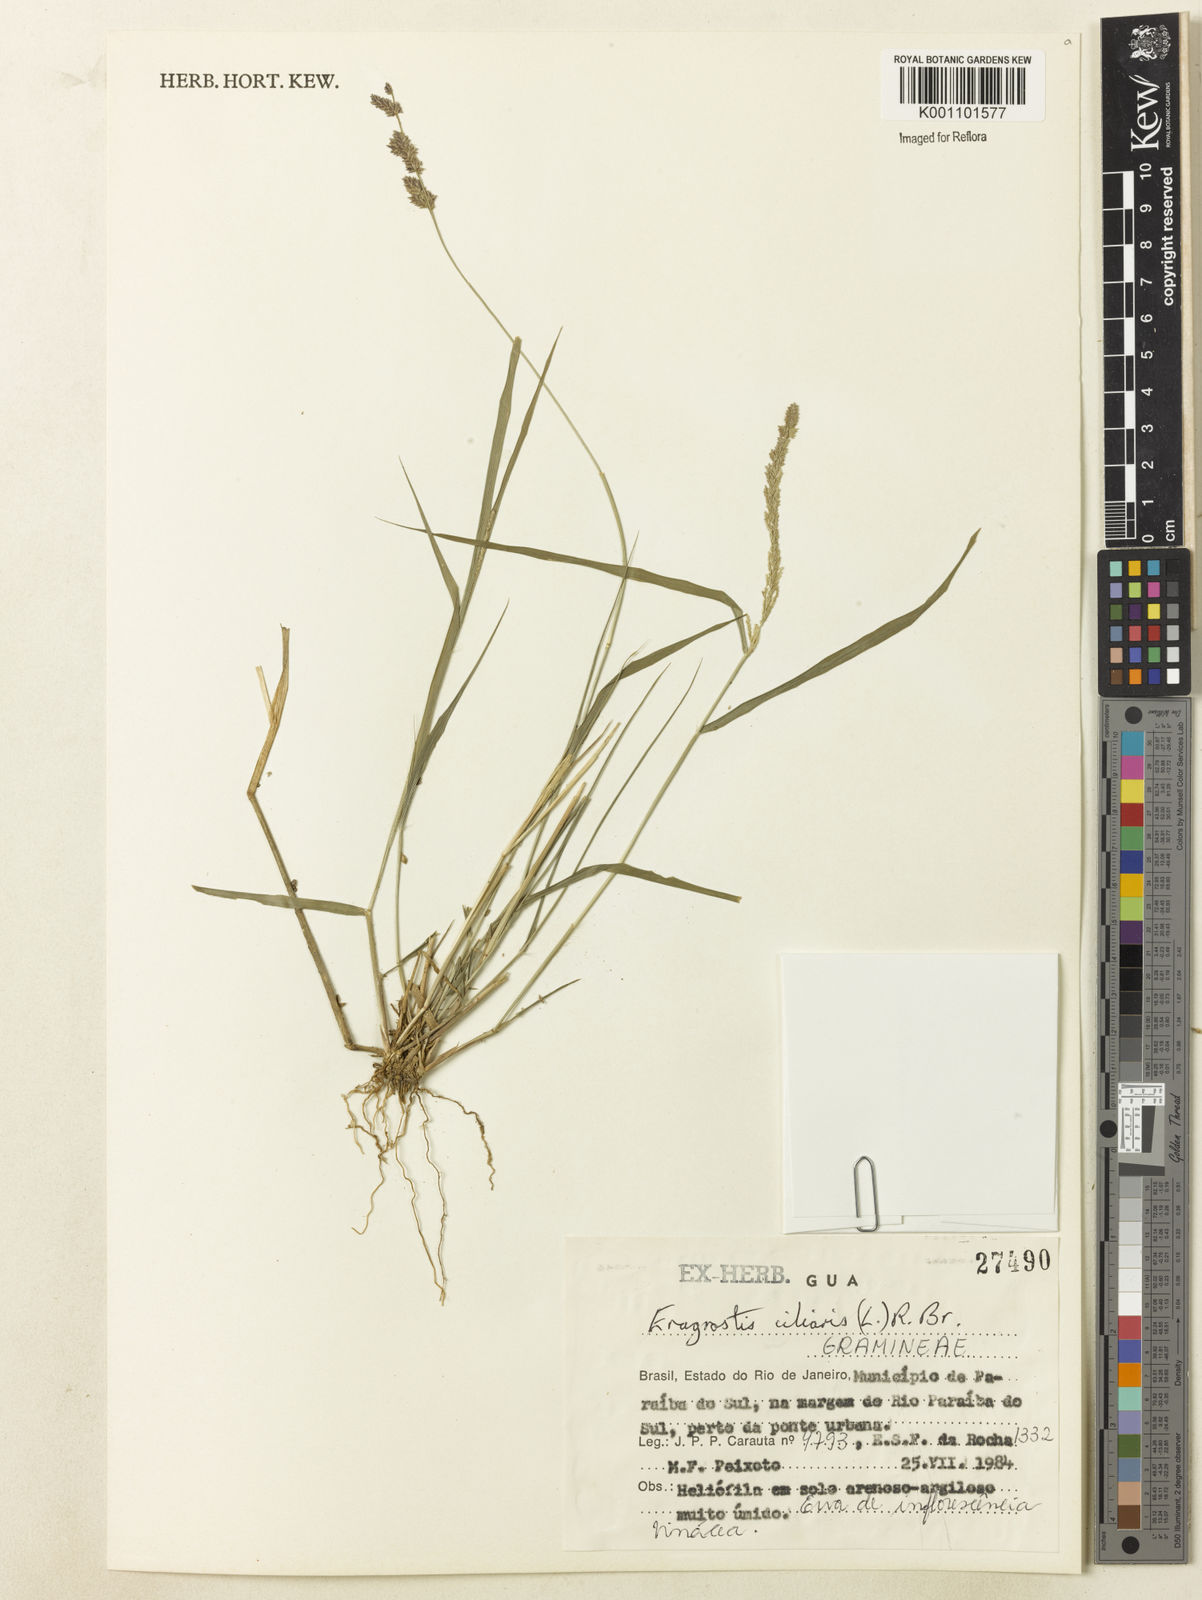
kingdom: Plantae
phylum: Tracheophyta
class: Liliopsida
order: Poales
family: Poaceae
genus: Eragrostis
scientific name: Eragrostis ciliaris
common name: Gophertail lovegrass
